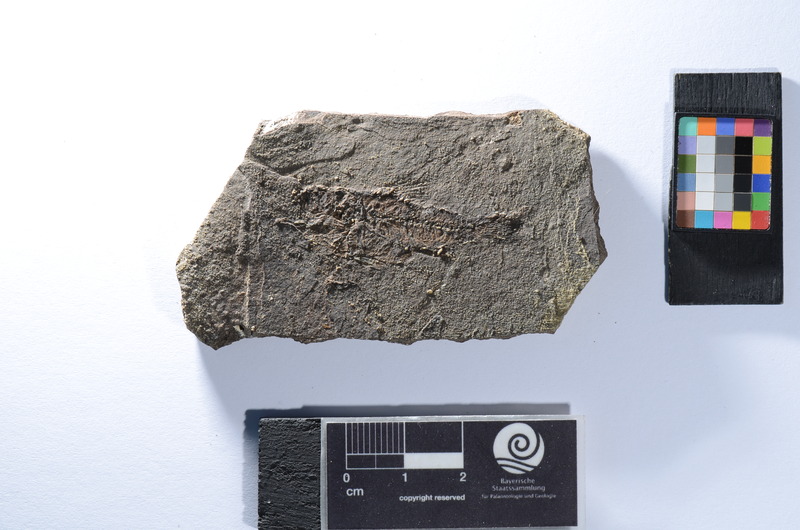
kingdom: Animalia
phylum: Chordata
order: Perciformes
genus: Smerdis
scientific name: Smerdis micracanthus
